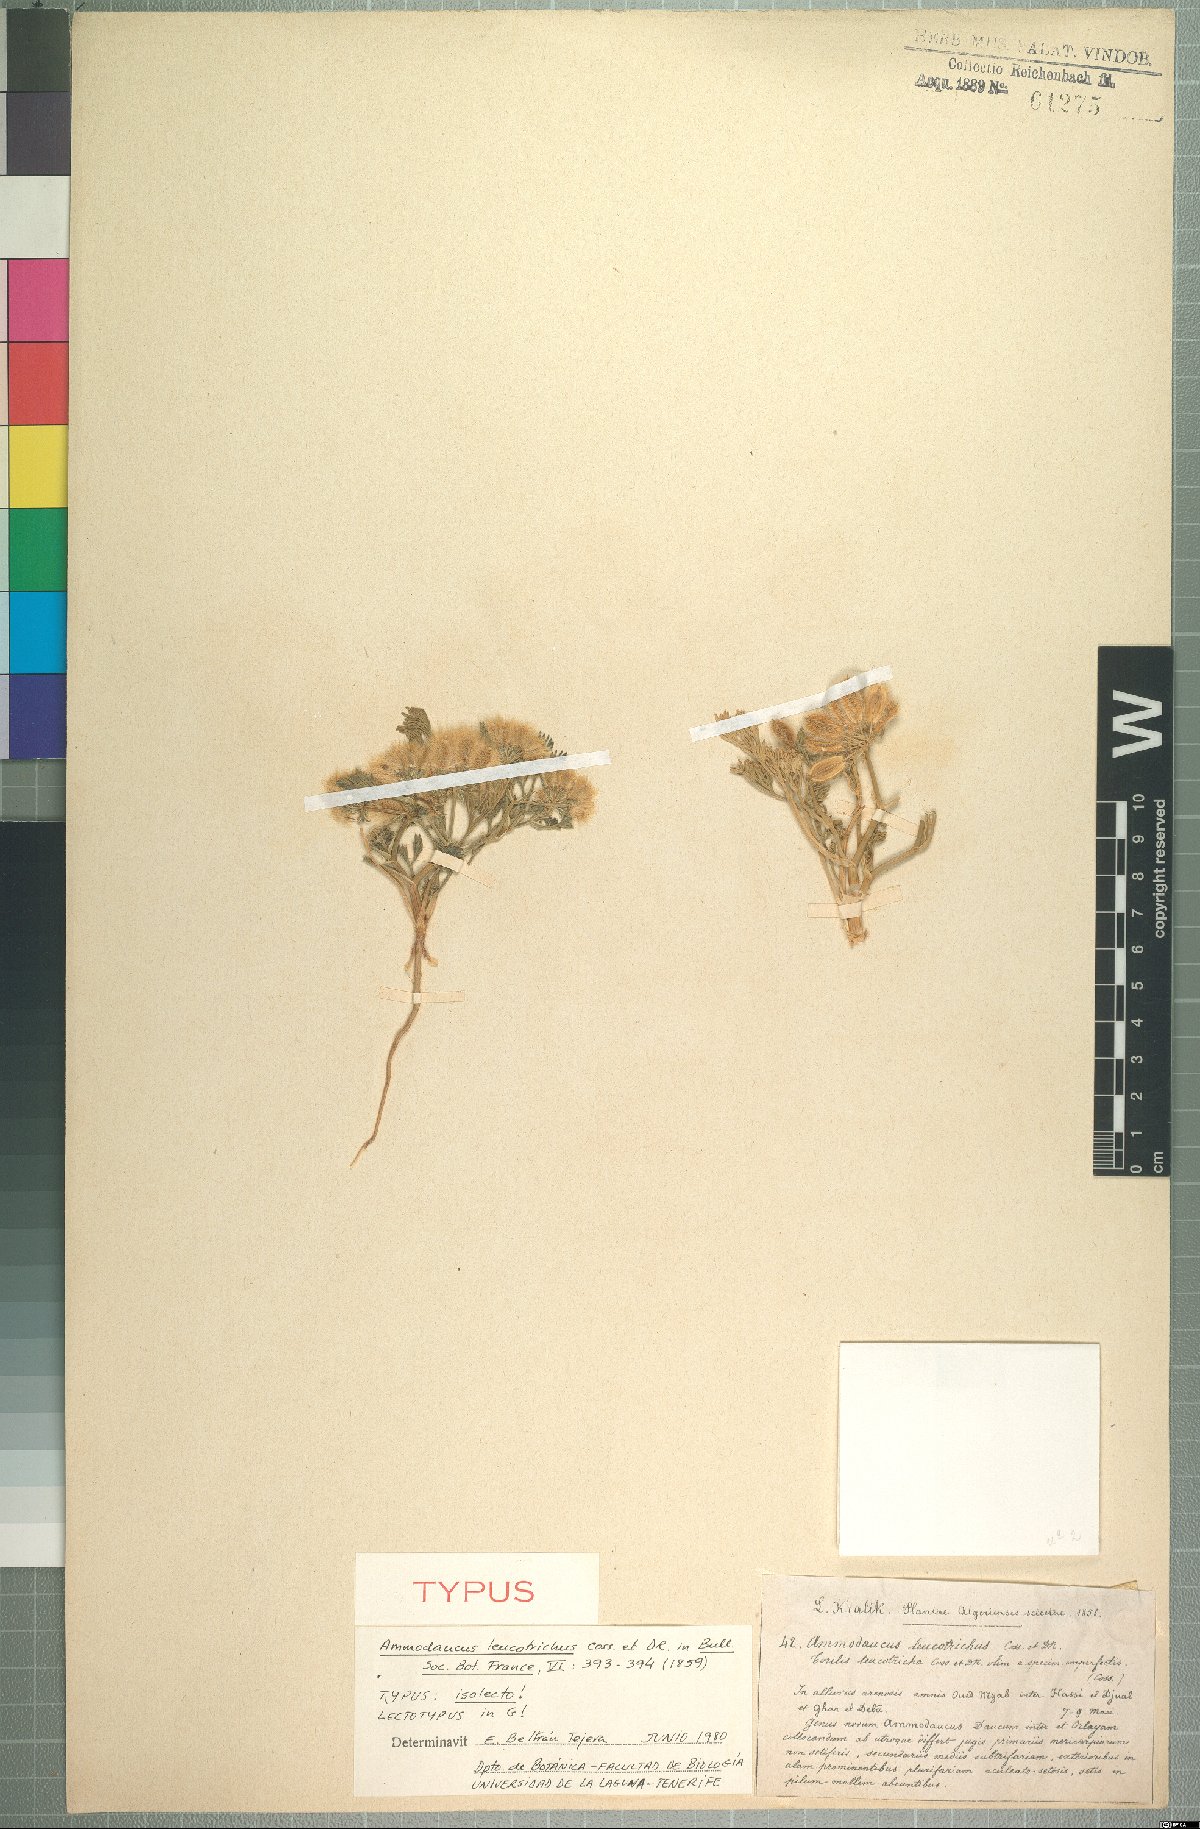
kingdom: Plantae
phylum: Tracheophyta
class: Magnoliopsida
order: Apiales
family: Apiaceae
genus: Ammodaucus
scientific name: Ammodaucus leucotrichus
